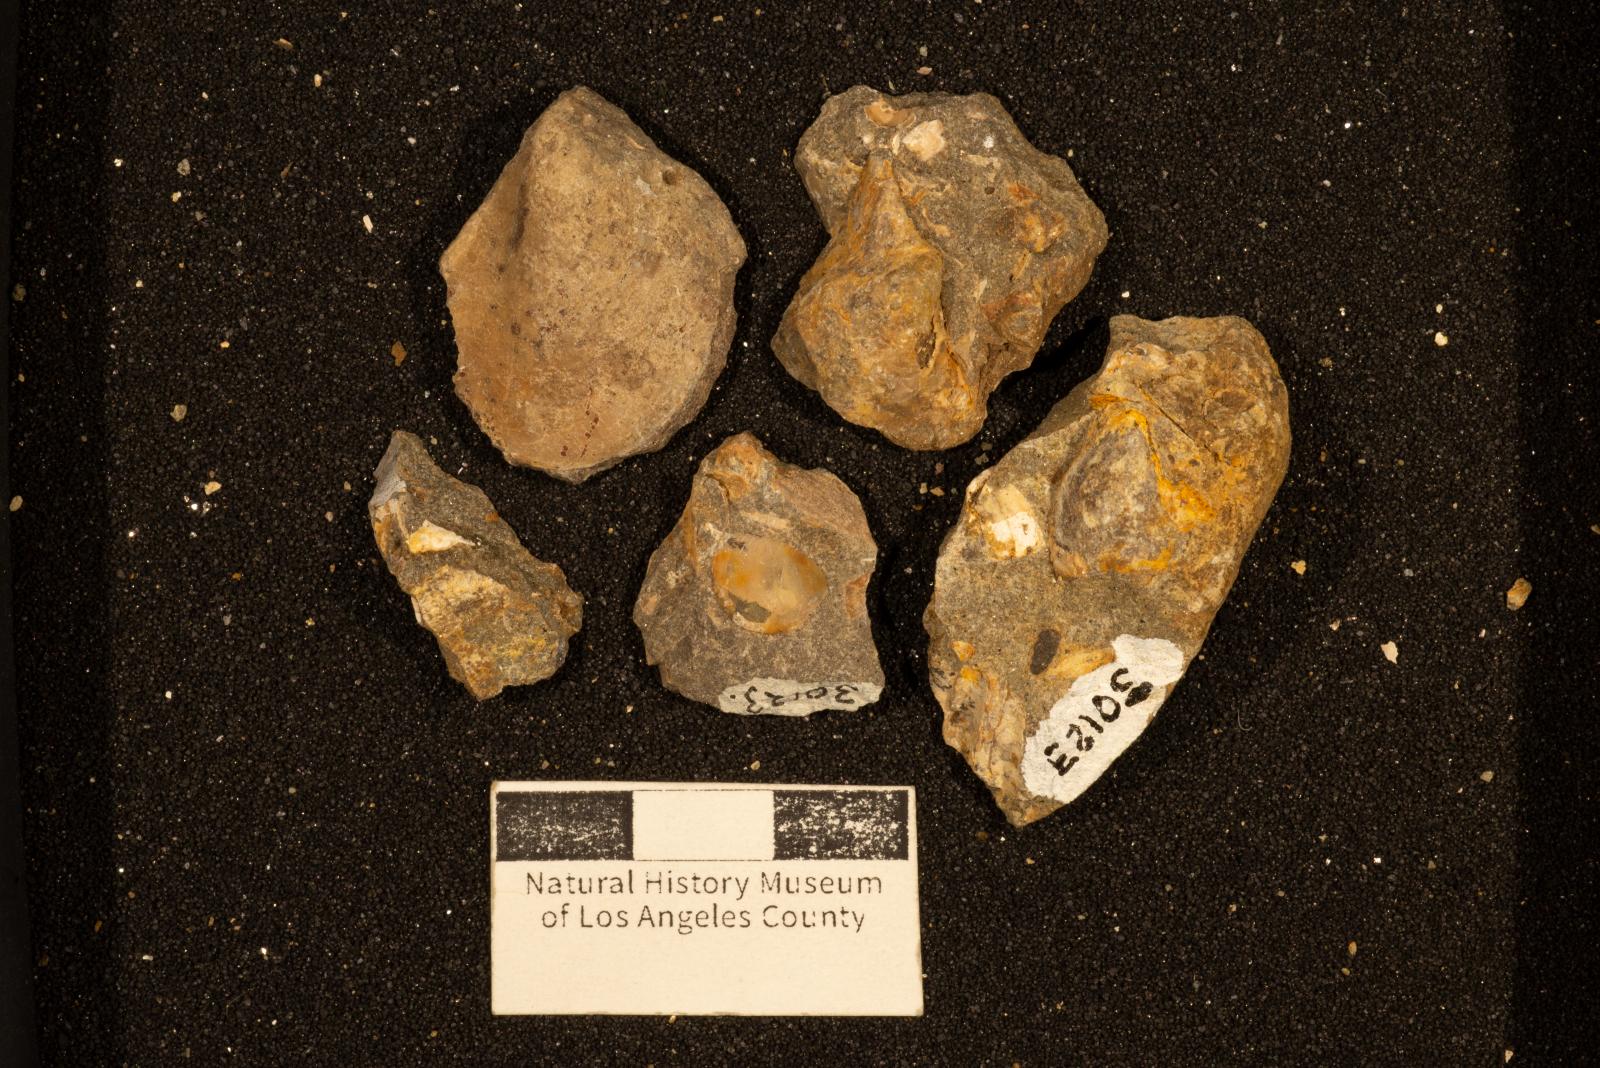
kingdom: Animalia
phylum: Mollusca
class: Bivalvia
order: Ostreida
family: Pteriidae
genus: Pteria
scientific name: Pteria pellucida
